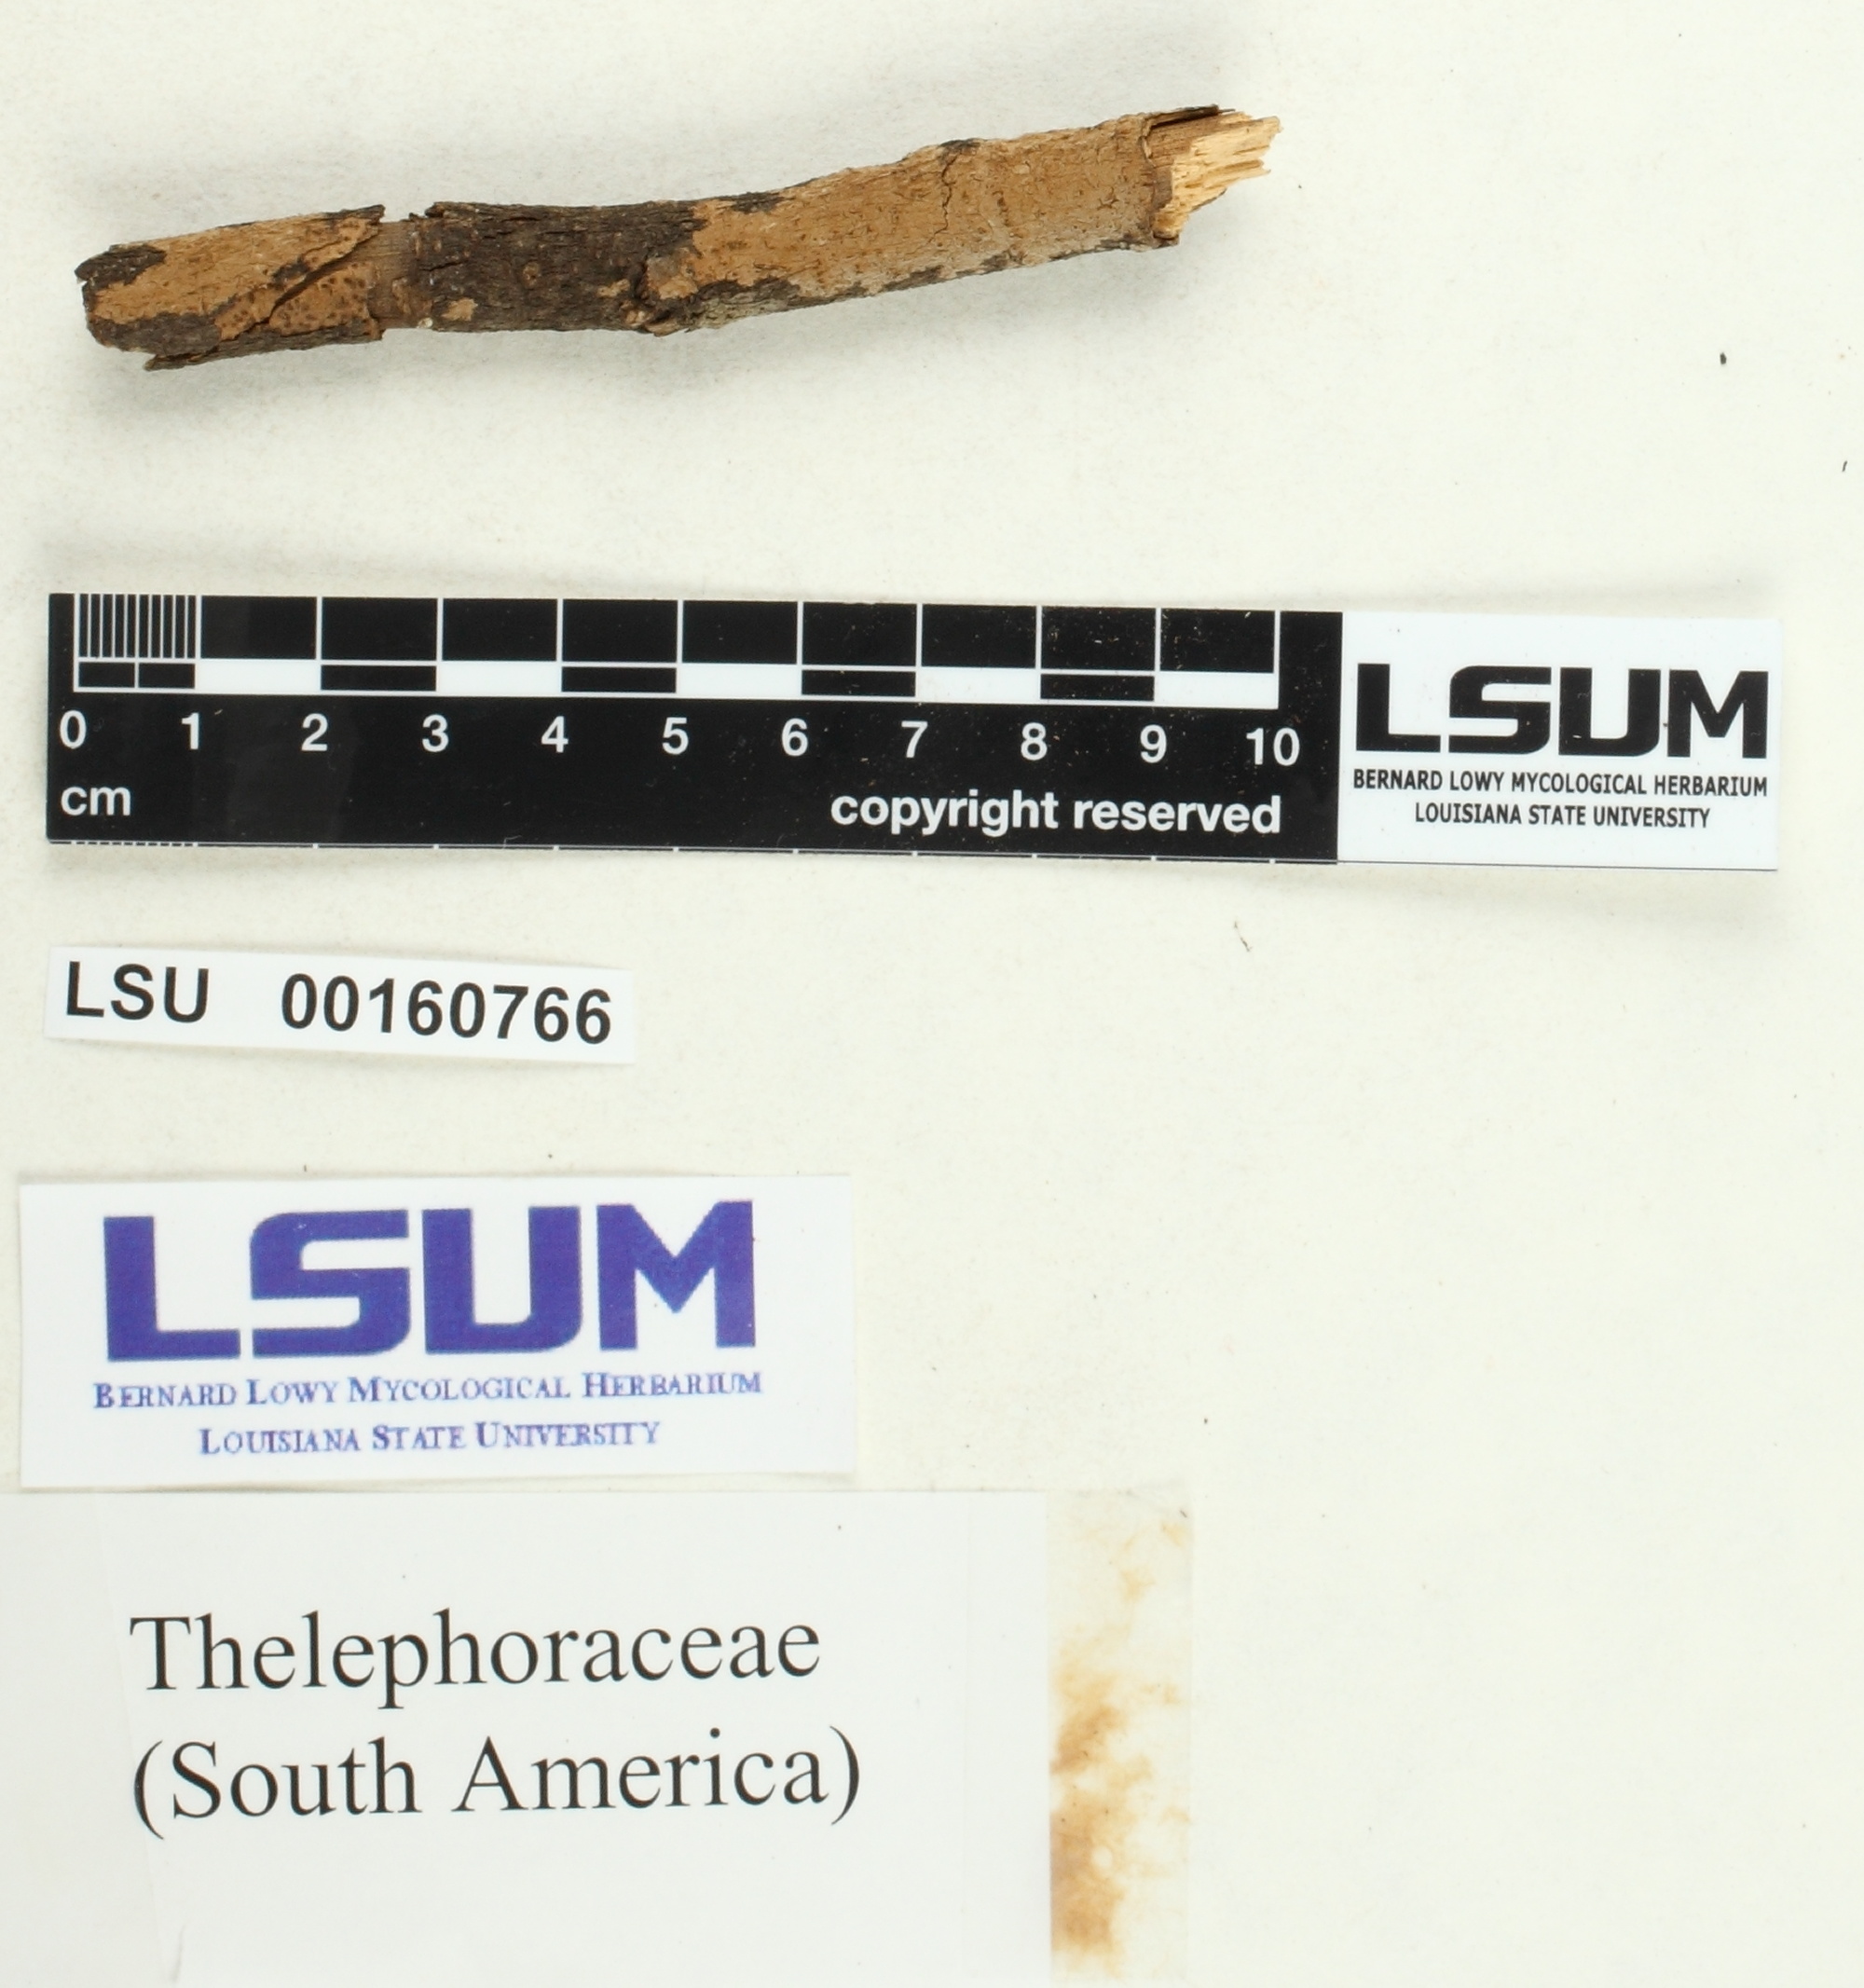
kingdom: Fungi
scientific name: Fungi
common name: Fungi
